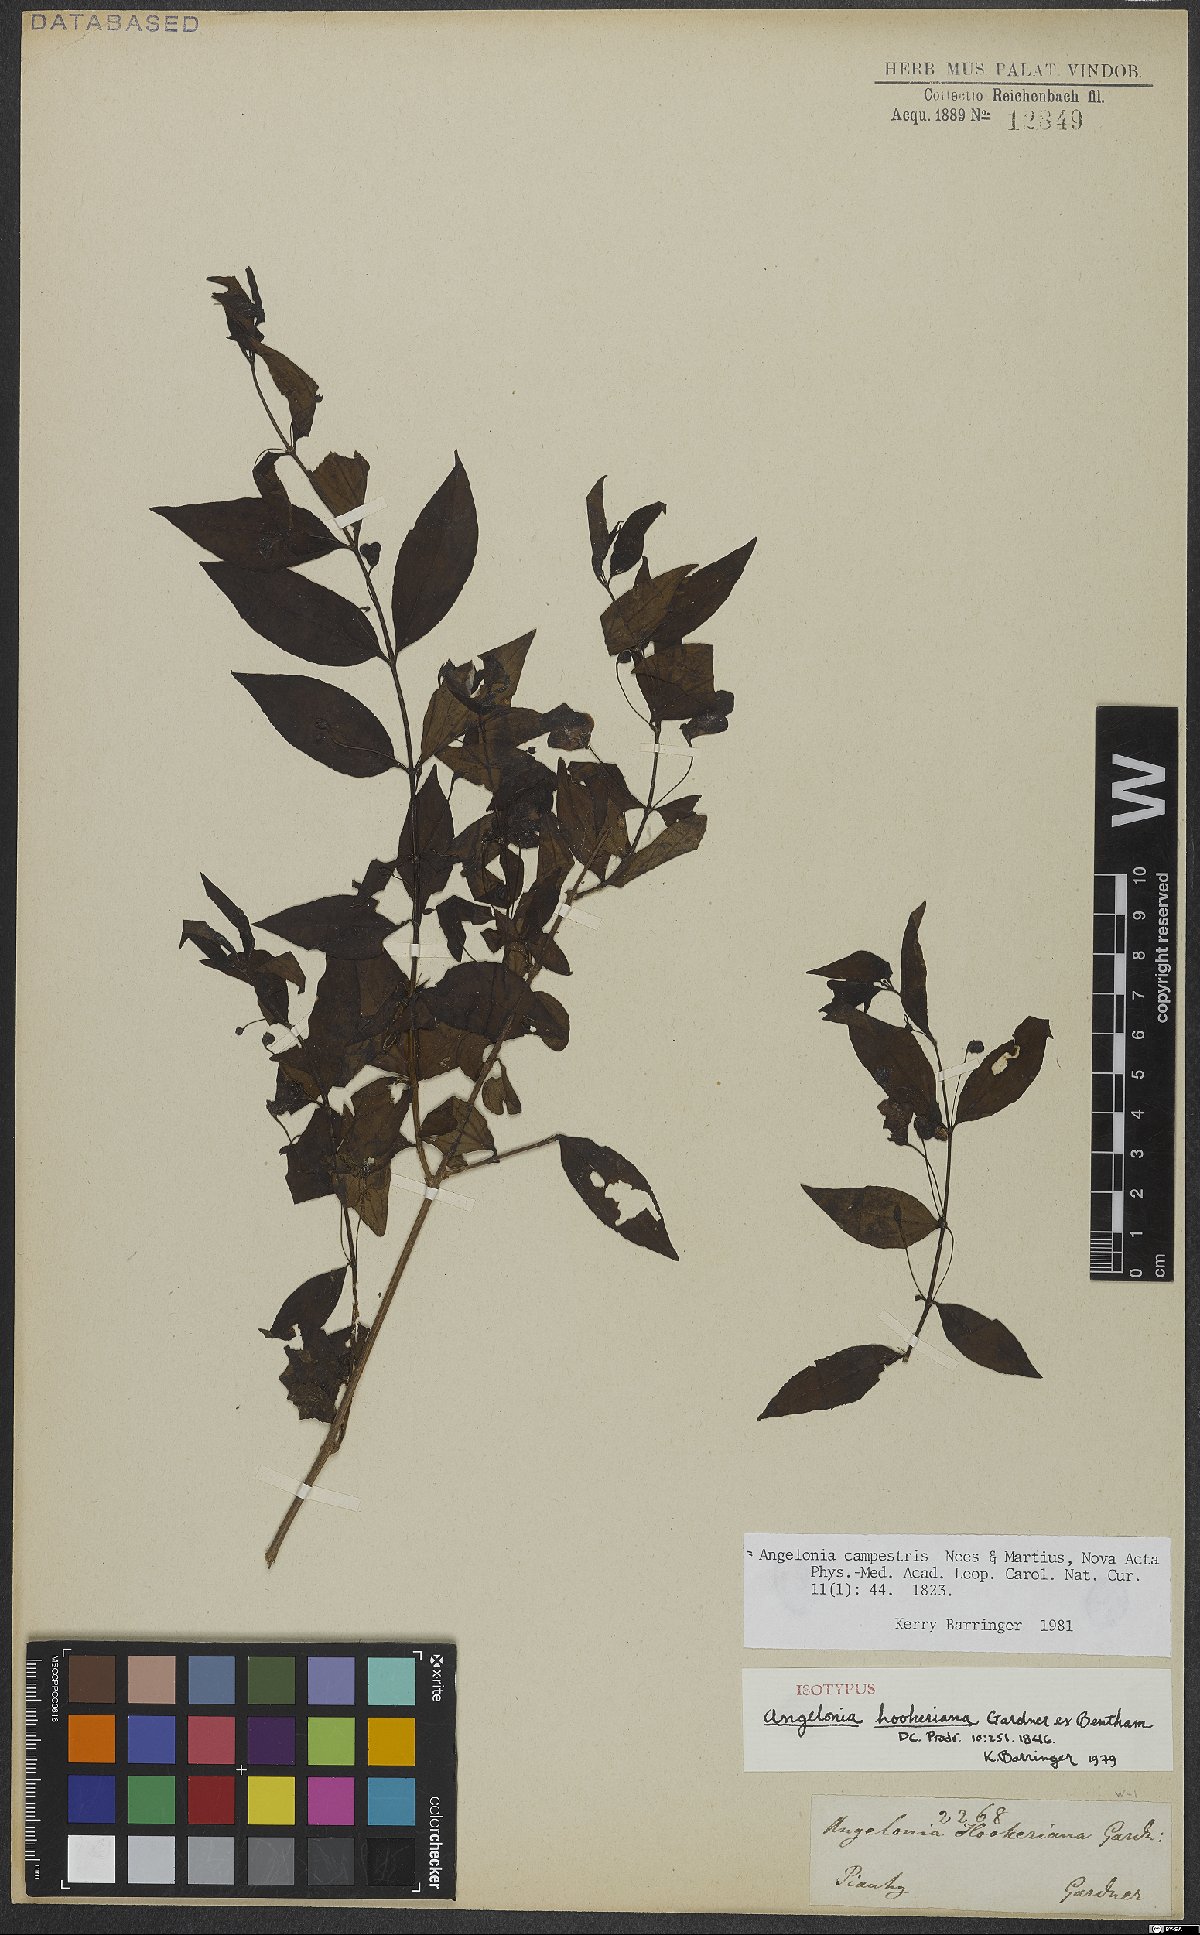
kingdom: Plantae
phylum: Tracheophyta
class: Magnoliopsida
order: Lamiales
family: Plantaginaceae
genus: Angelonia
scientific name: Angelonia campestris
